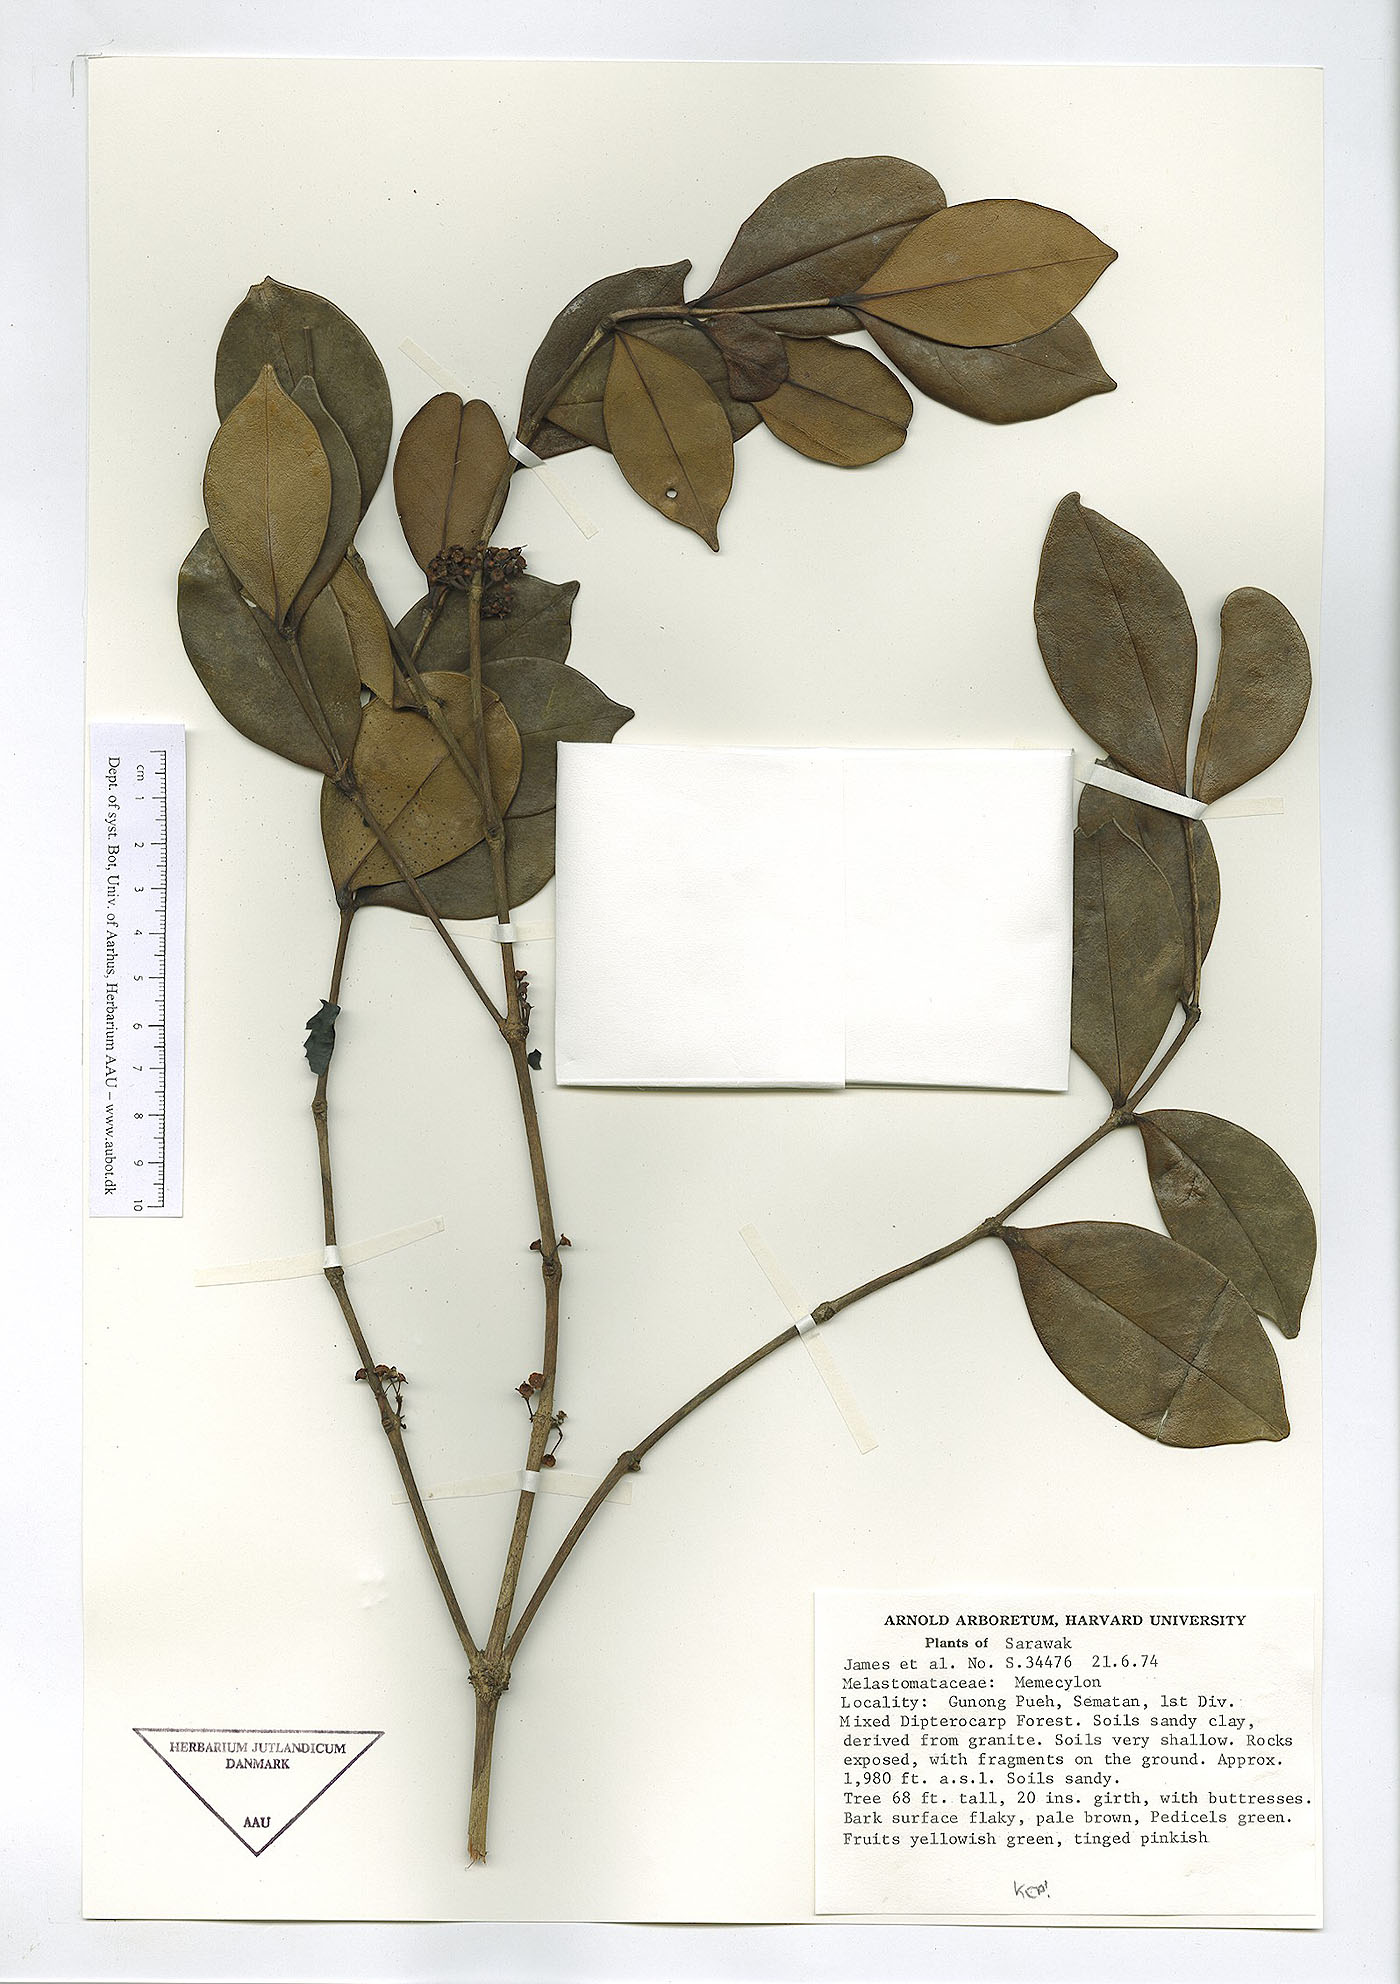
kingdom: Plantae
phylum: Tracheophyta
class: Magnoliopsida
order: Myrtales
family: Melastomataceae
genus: Memecylon
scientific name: Memecylon
